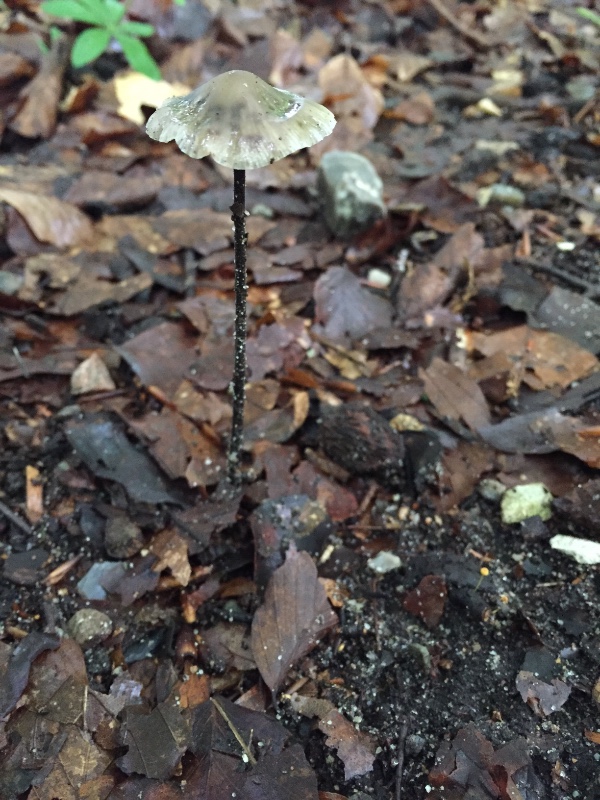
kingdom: Fungi
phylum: Basidiomycota
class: Agaricomycetes
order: Agaricales
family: Omphalotaceae
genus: Mycetinis
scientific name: Mycetinis alliaceus
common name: stor løghat
